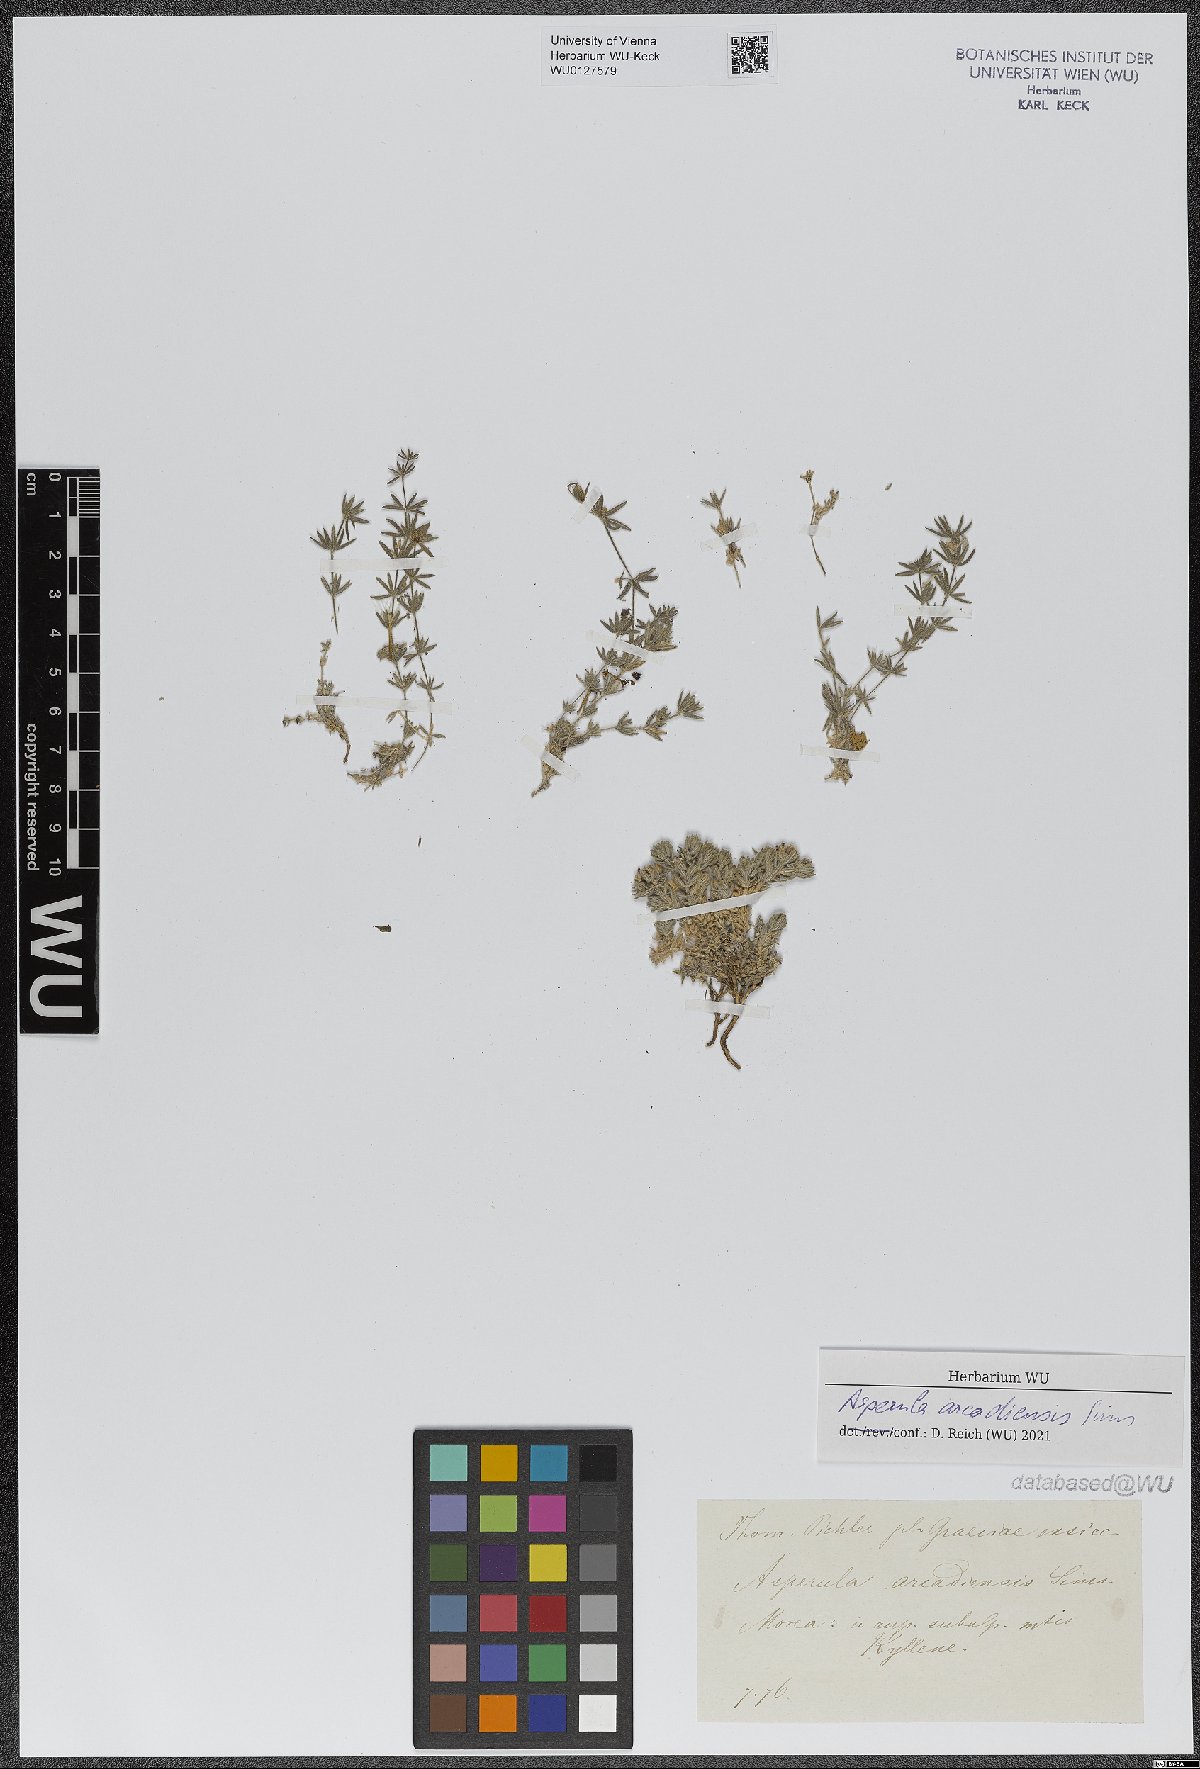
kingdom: Plantae
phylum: Tracheophyta
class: Magnoliopsida
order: Gentianales
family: Rubiaceae
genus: Hexaphylla
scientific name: Hexaphylla arcadiensis
